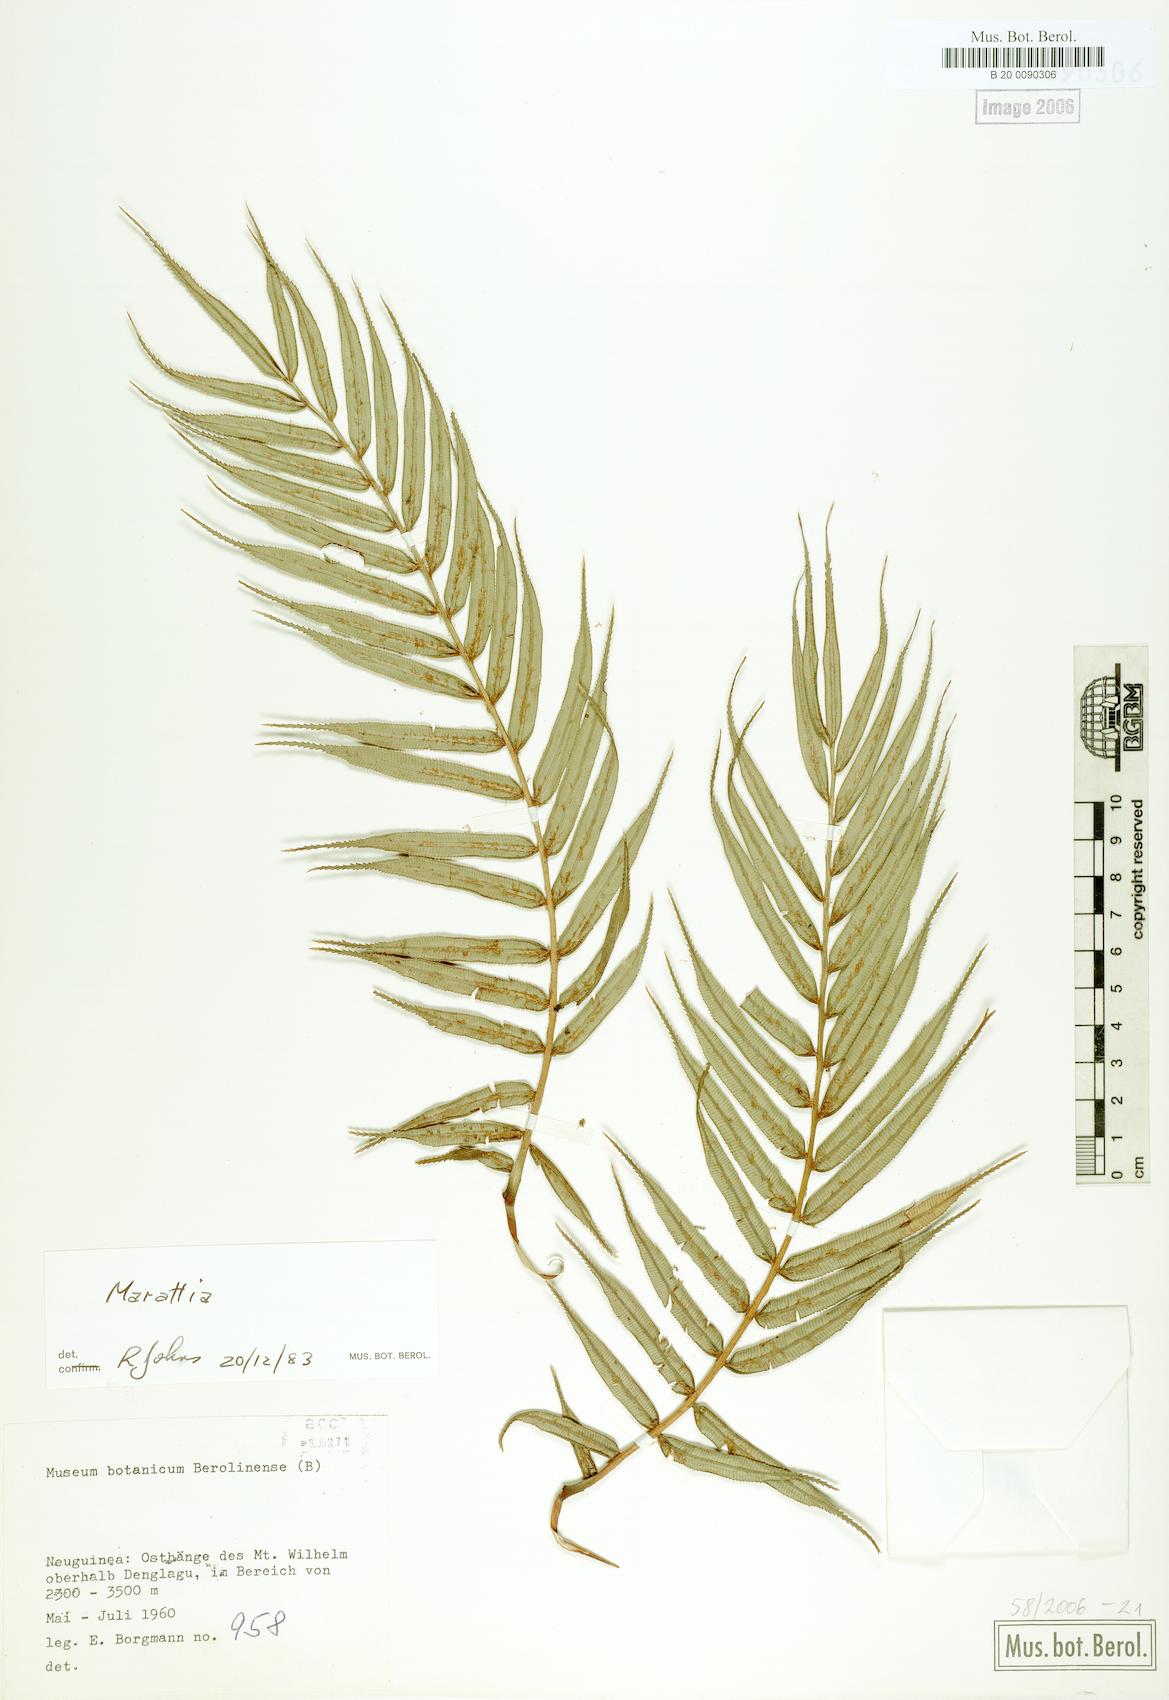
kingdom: Plantae
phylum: Tracheophyta
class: Polypodiopsida
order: Marattiales
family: Marattiaceae
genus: Marattia
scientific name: Marattia
